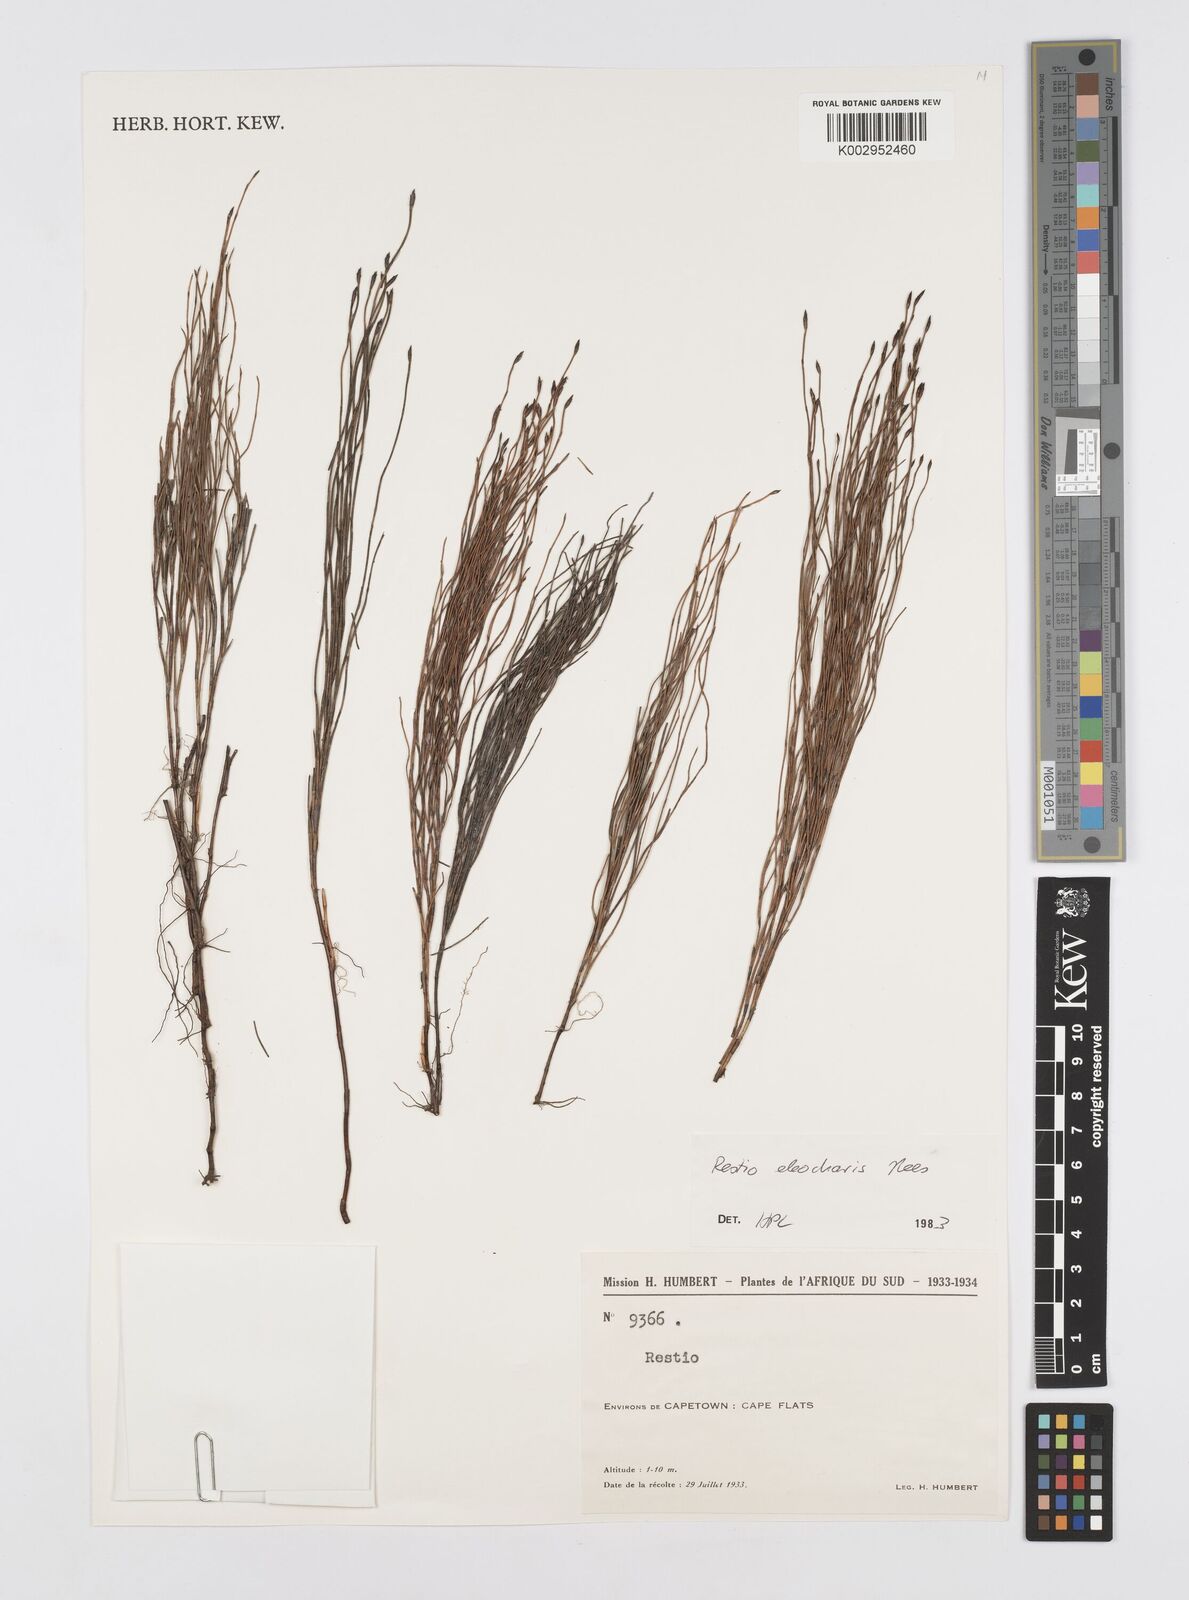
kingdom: Plantae
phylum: Tracheophyta
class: Liliopsida
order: Poales
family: Restionaceae
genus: Restio
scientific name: Restio eleocharis
